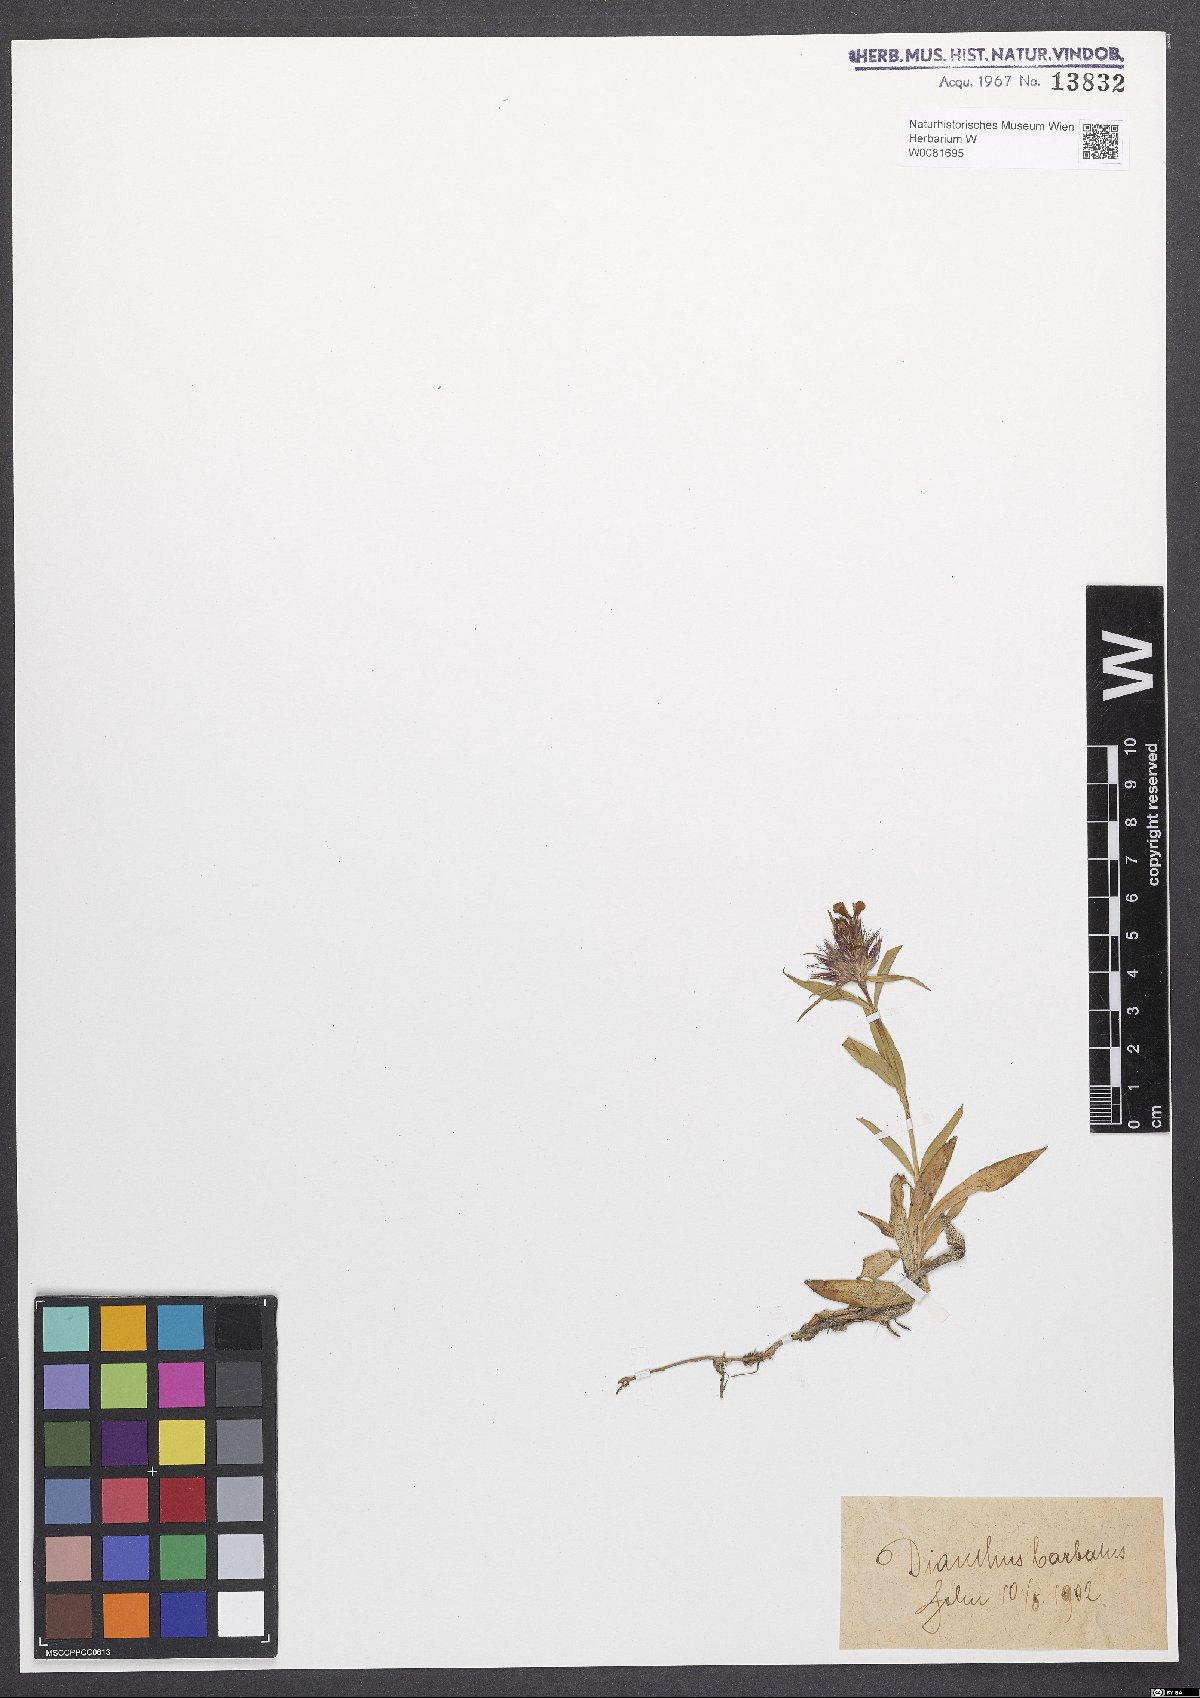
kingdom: Plantae
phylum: Tracheophyta
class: Magnoliopsida
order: Caryophyllales
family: Caryophyllaceae
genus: Dianthus
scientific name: Dianthus barbatus
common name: Sweet-william
